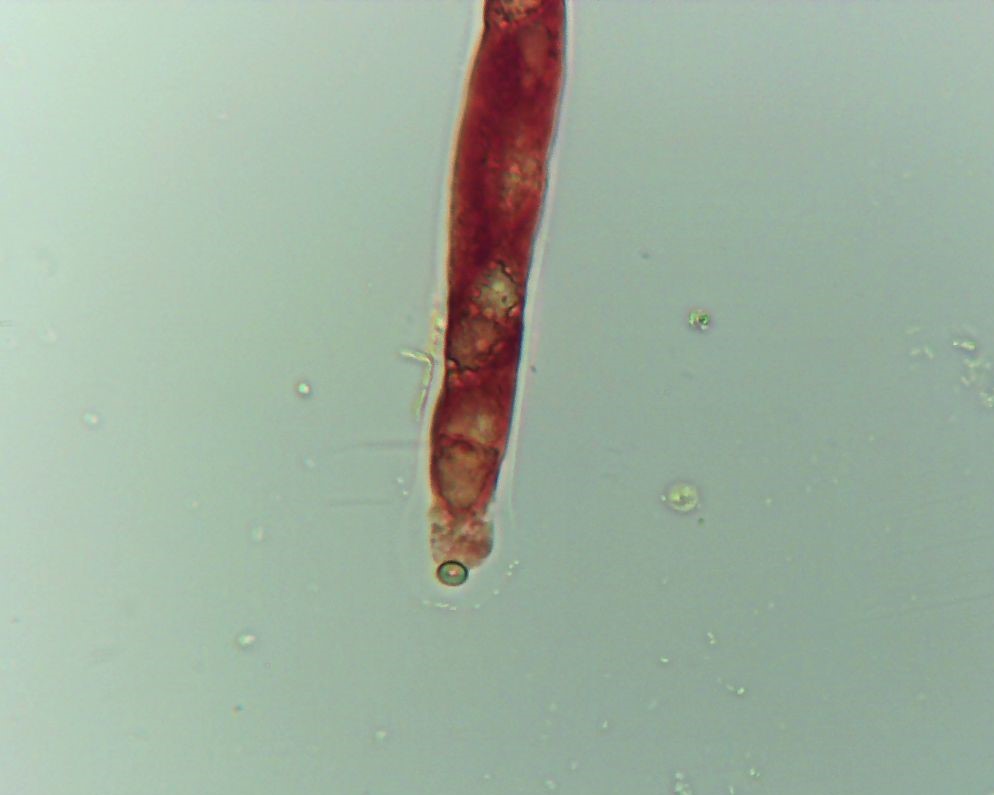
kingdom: Fungi
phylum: Ascomycota
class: Sordariomycetes
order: Amphisphaeriales
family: Amphisphaeriaceae
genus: Ceriospora
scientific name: Ceriospora ribis
